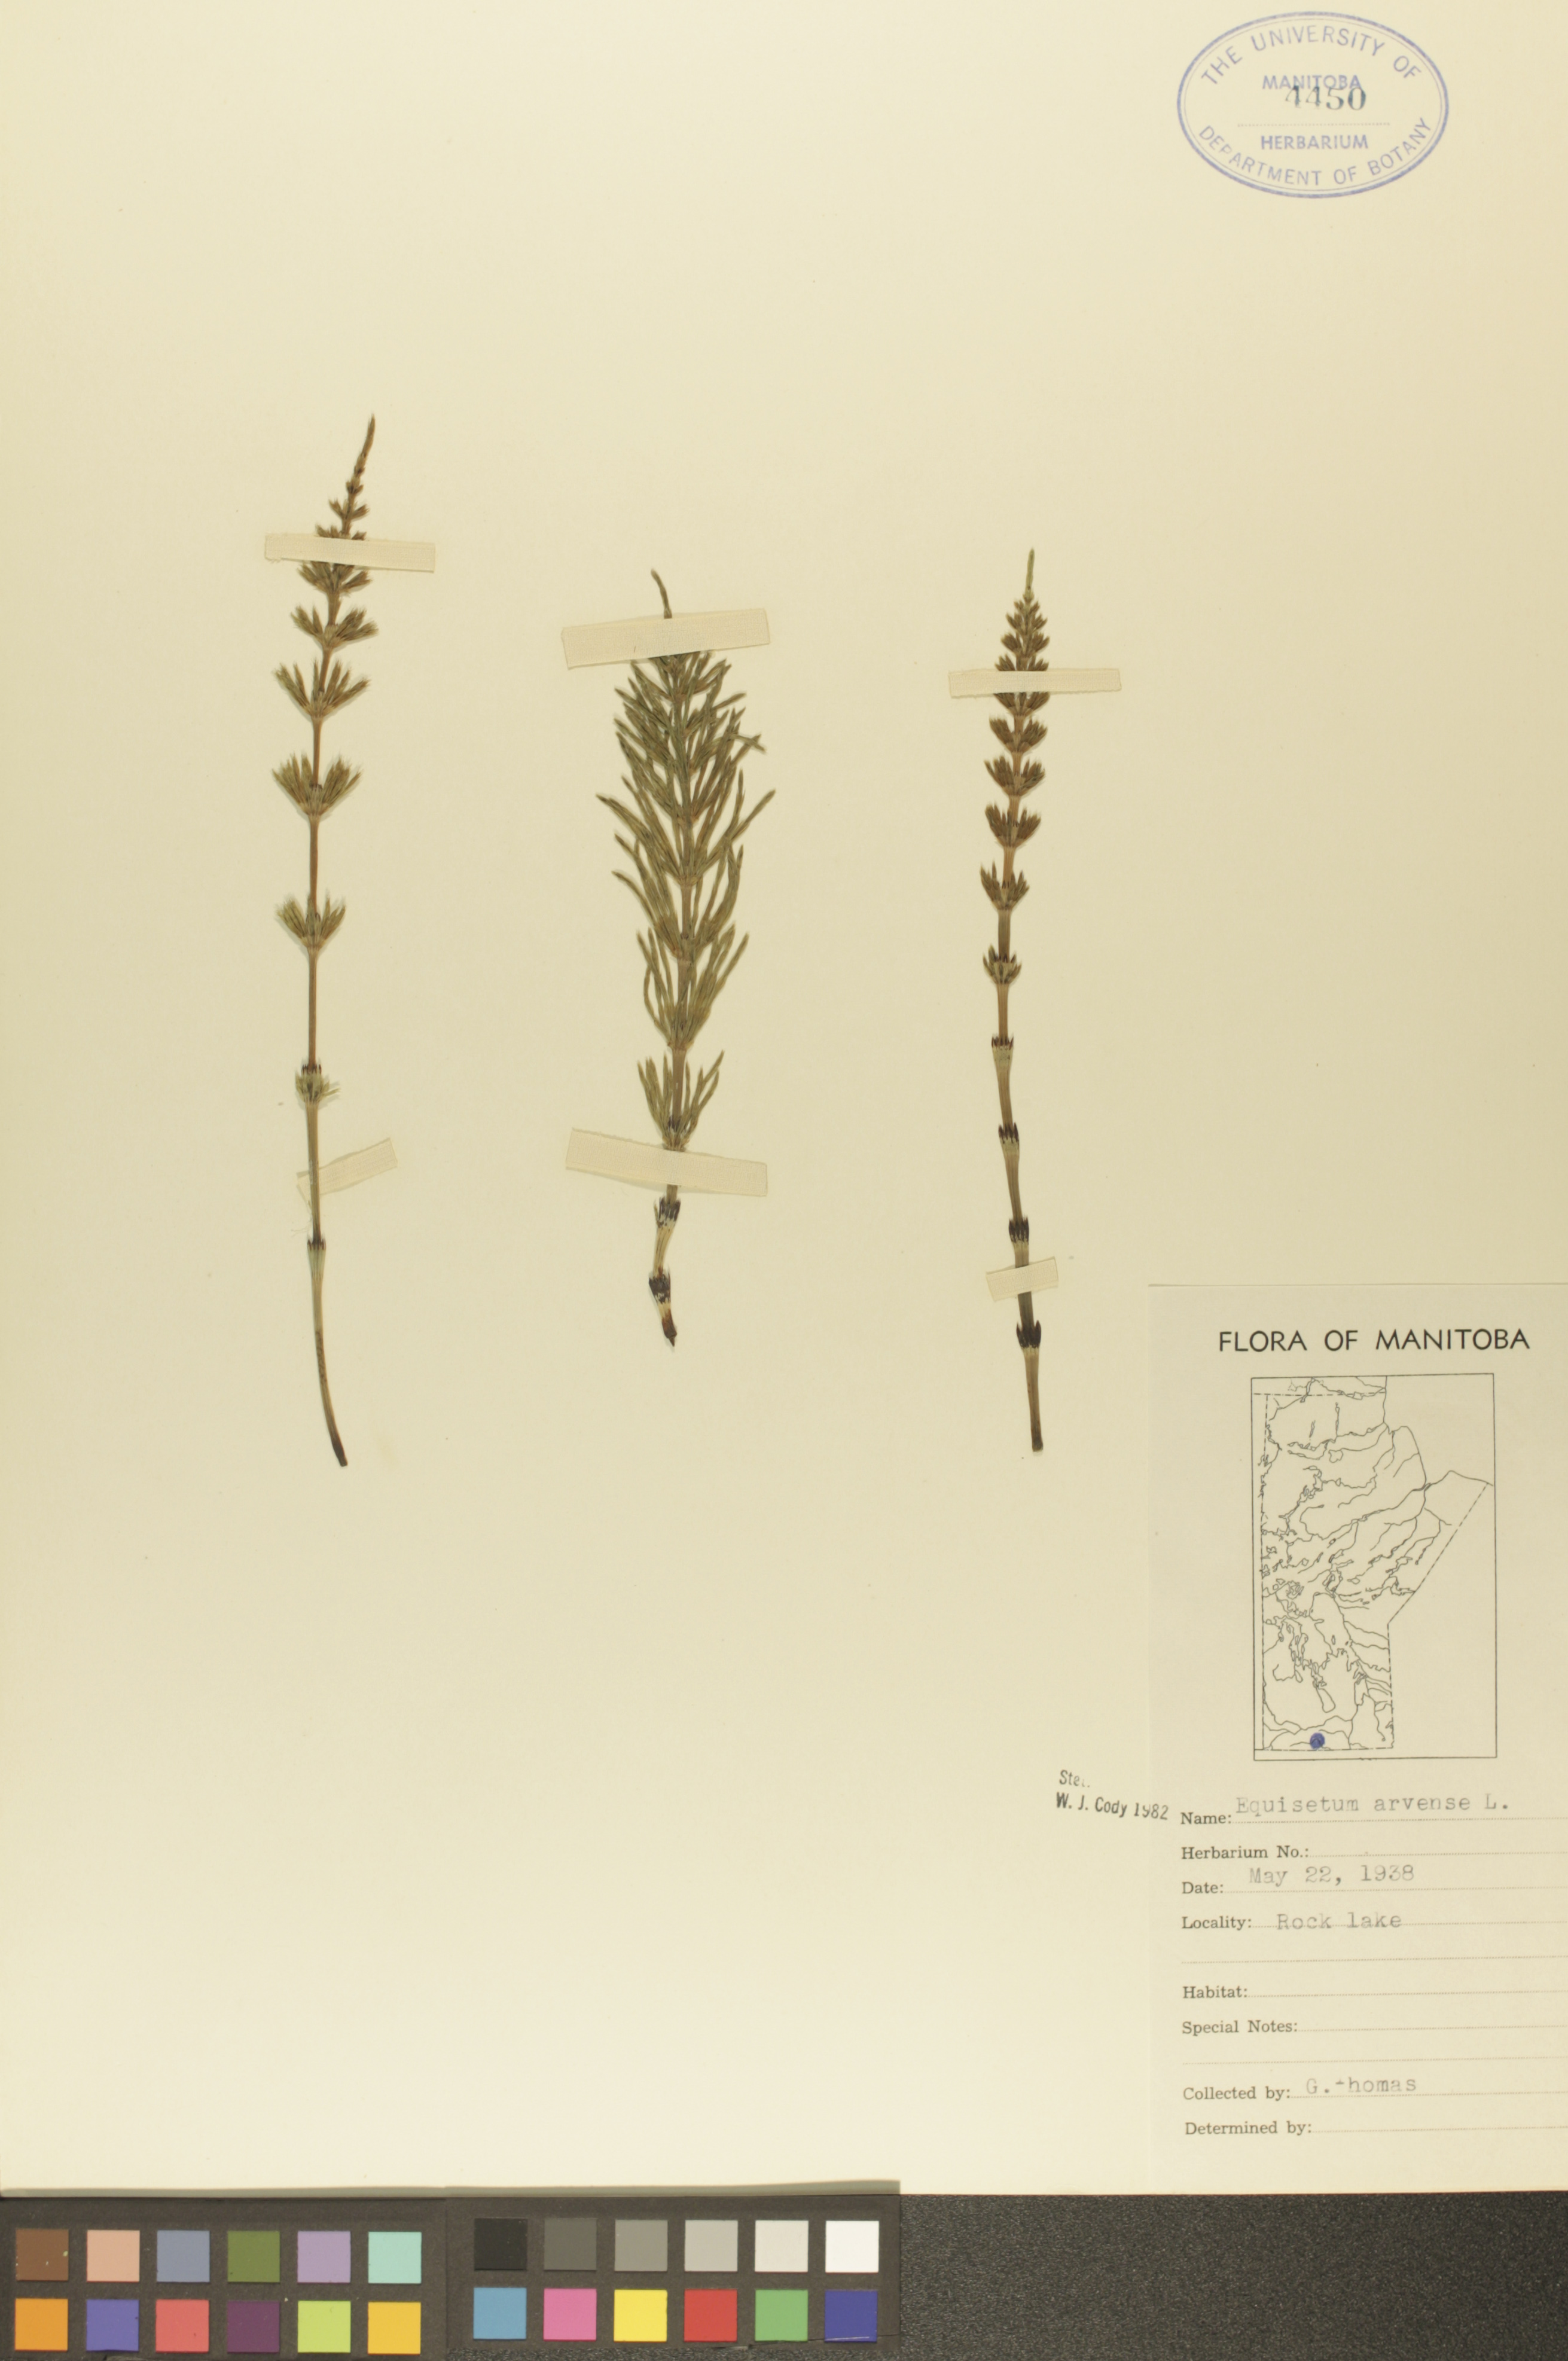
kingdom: Plantae
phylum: Tracheophyta
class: Polypodiopsida
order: Equisetales
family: Equisetaceae
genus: Equisetum
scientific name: Equisetum arvense
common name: Field horsetail
